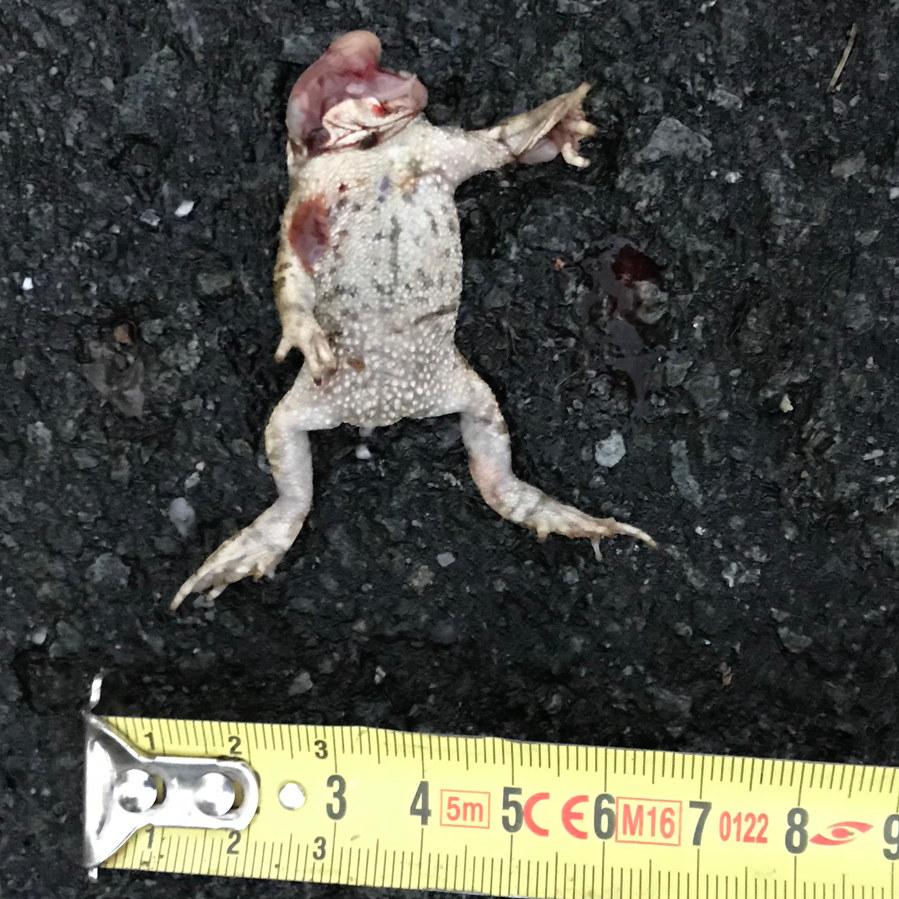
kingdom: Animalia
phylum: Chordata
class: Amphibia
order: Anura
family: Bufonidae
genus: Epidalea
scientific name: Epidalea calamita
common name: Natterjack toad
